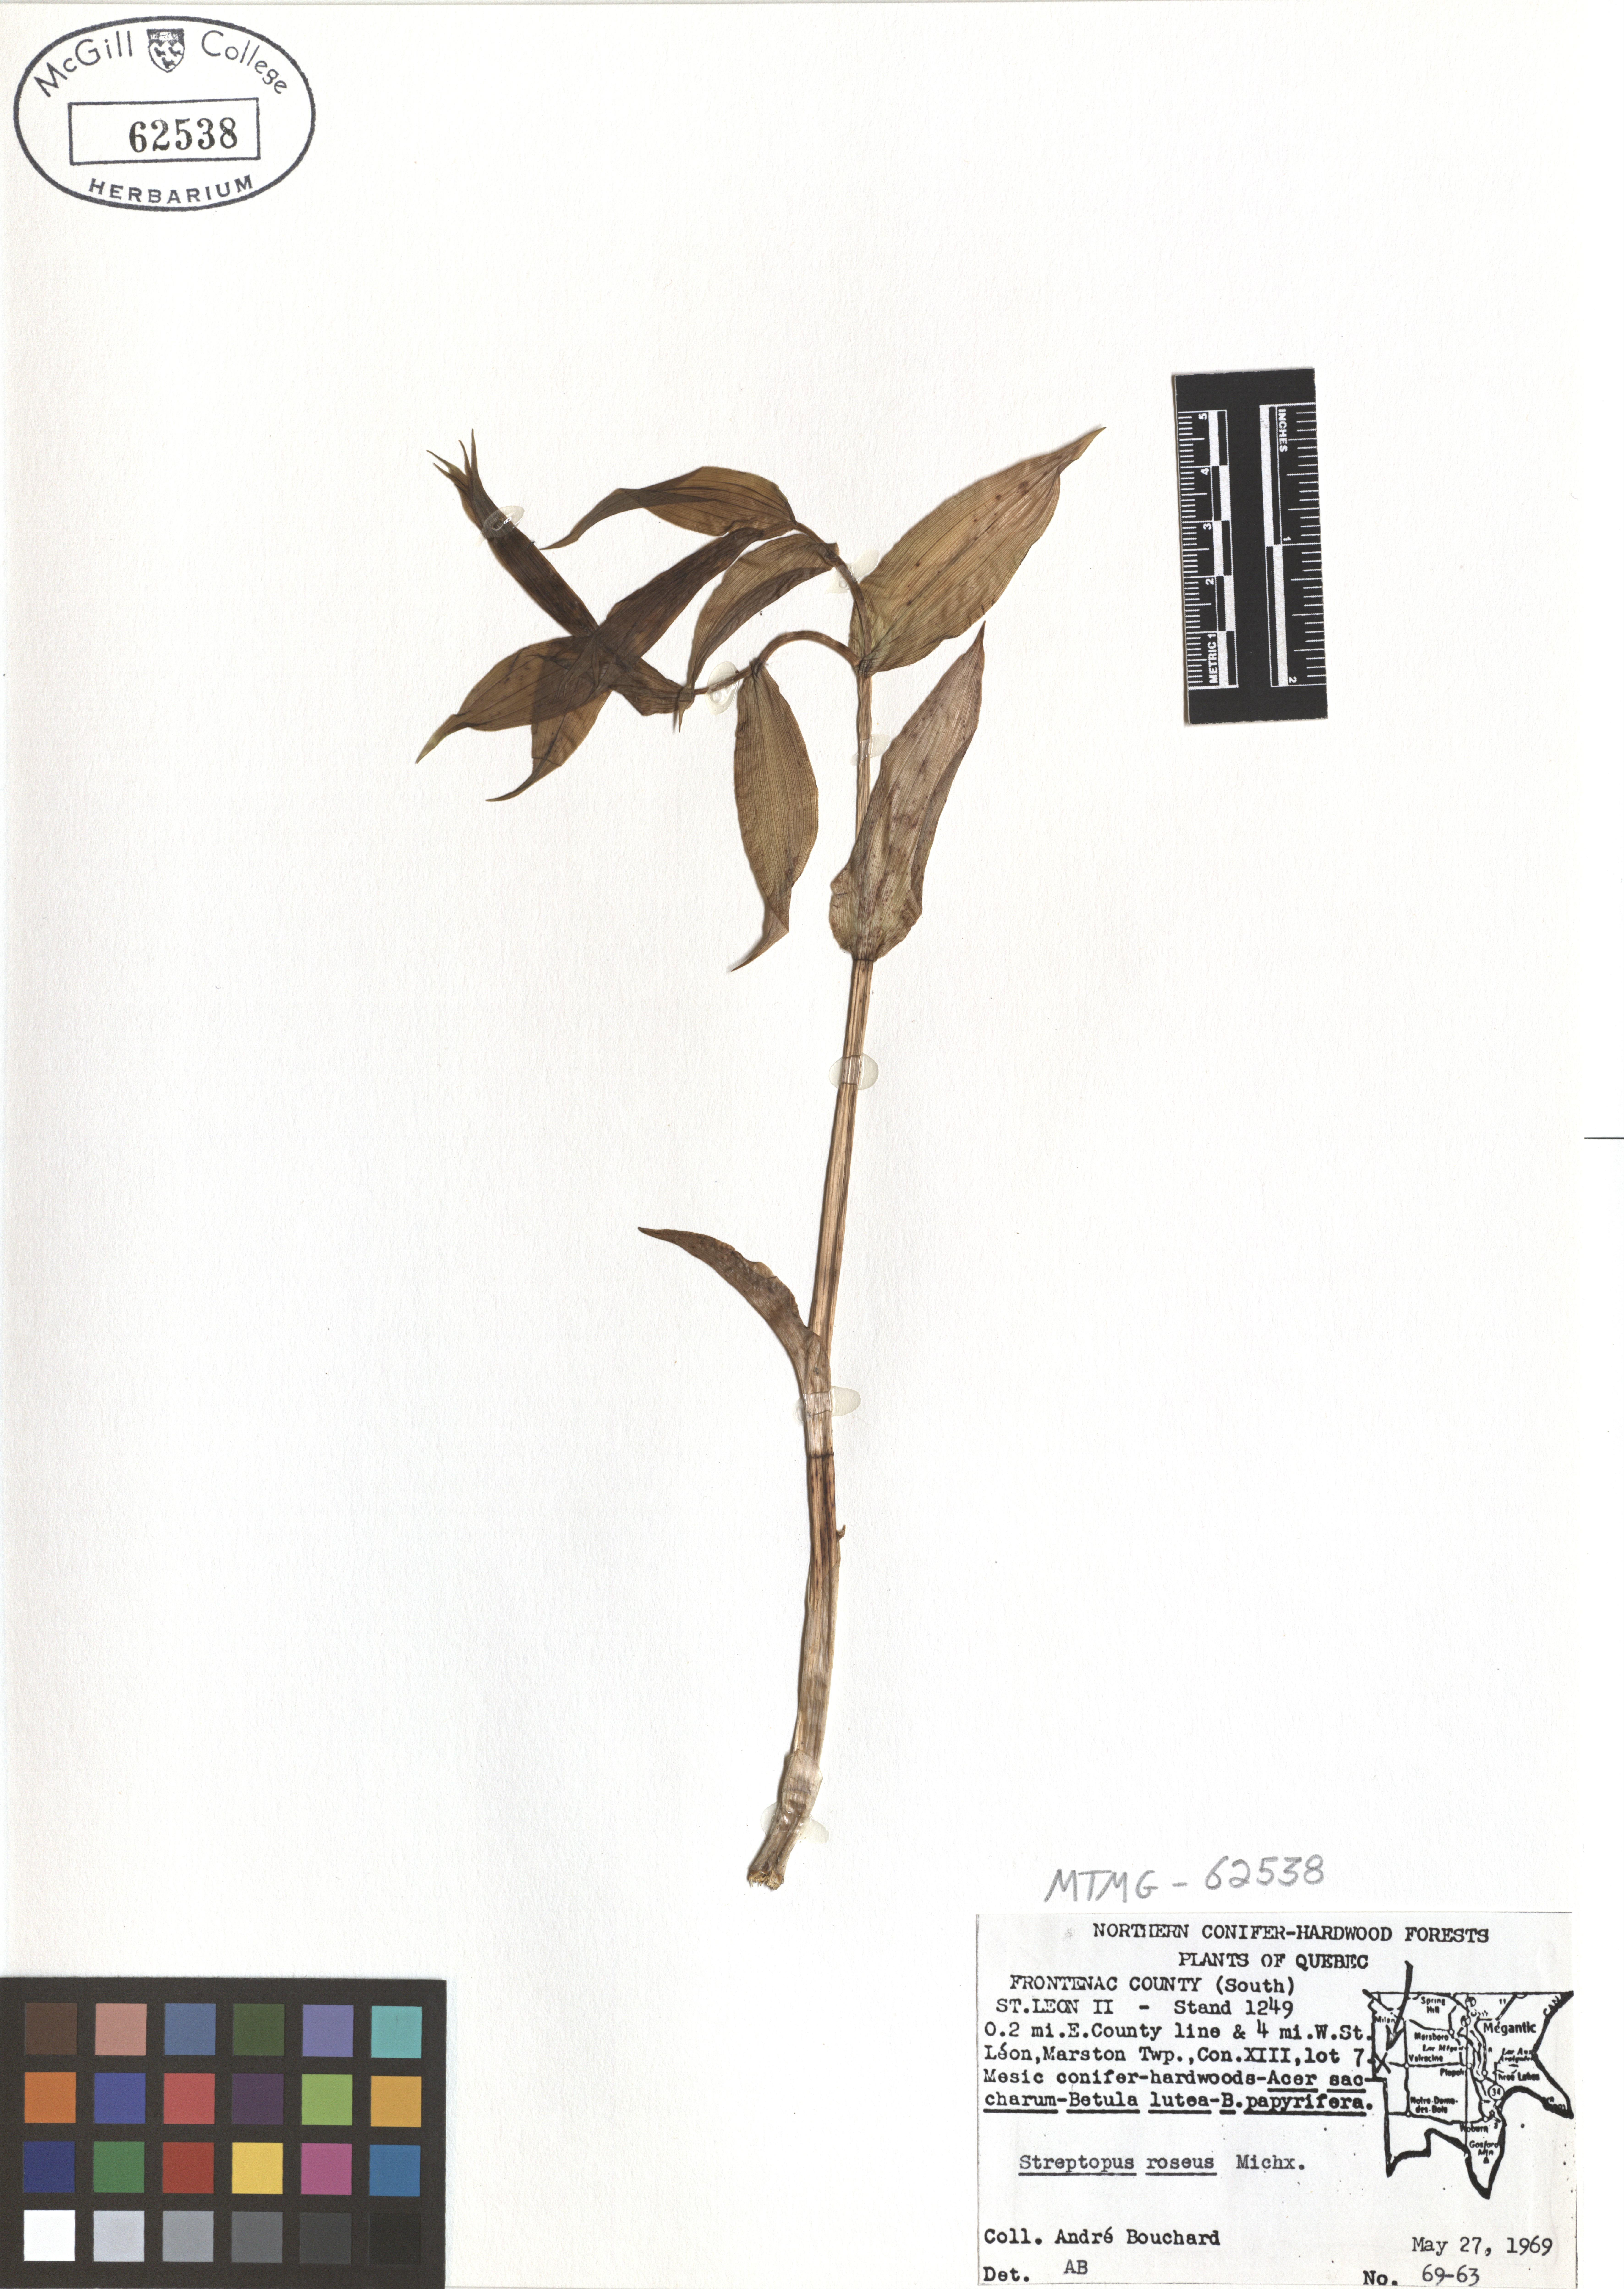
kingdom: Plantae
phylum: Tracheophyta
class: Liliopsida
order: Liliales
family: Liliaceae
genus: Streptopus
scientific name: Streptopus lanceolatus
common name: Rose mandarin
